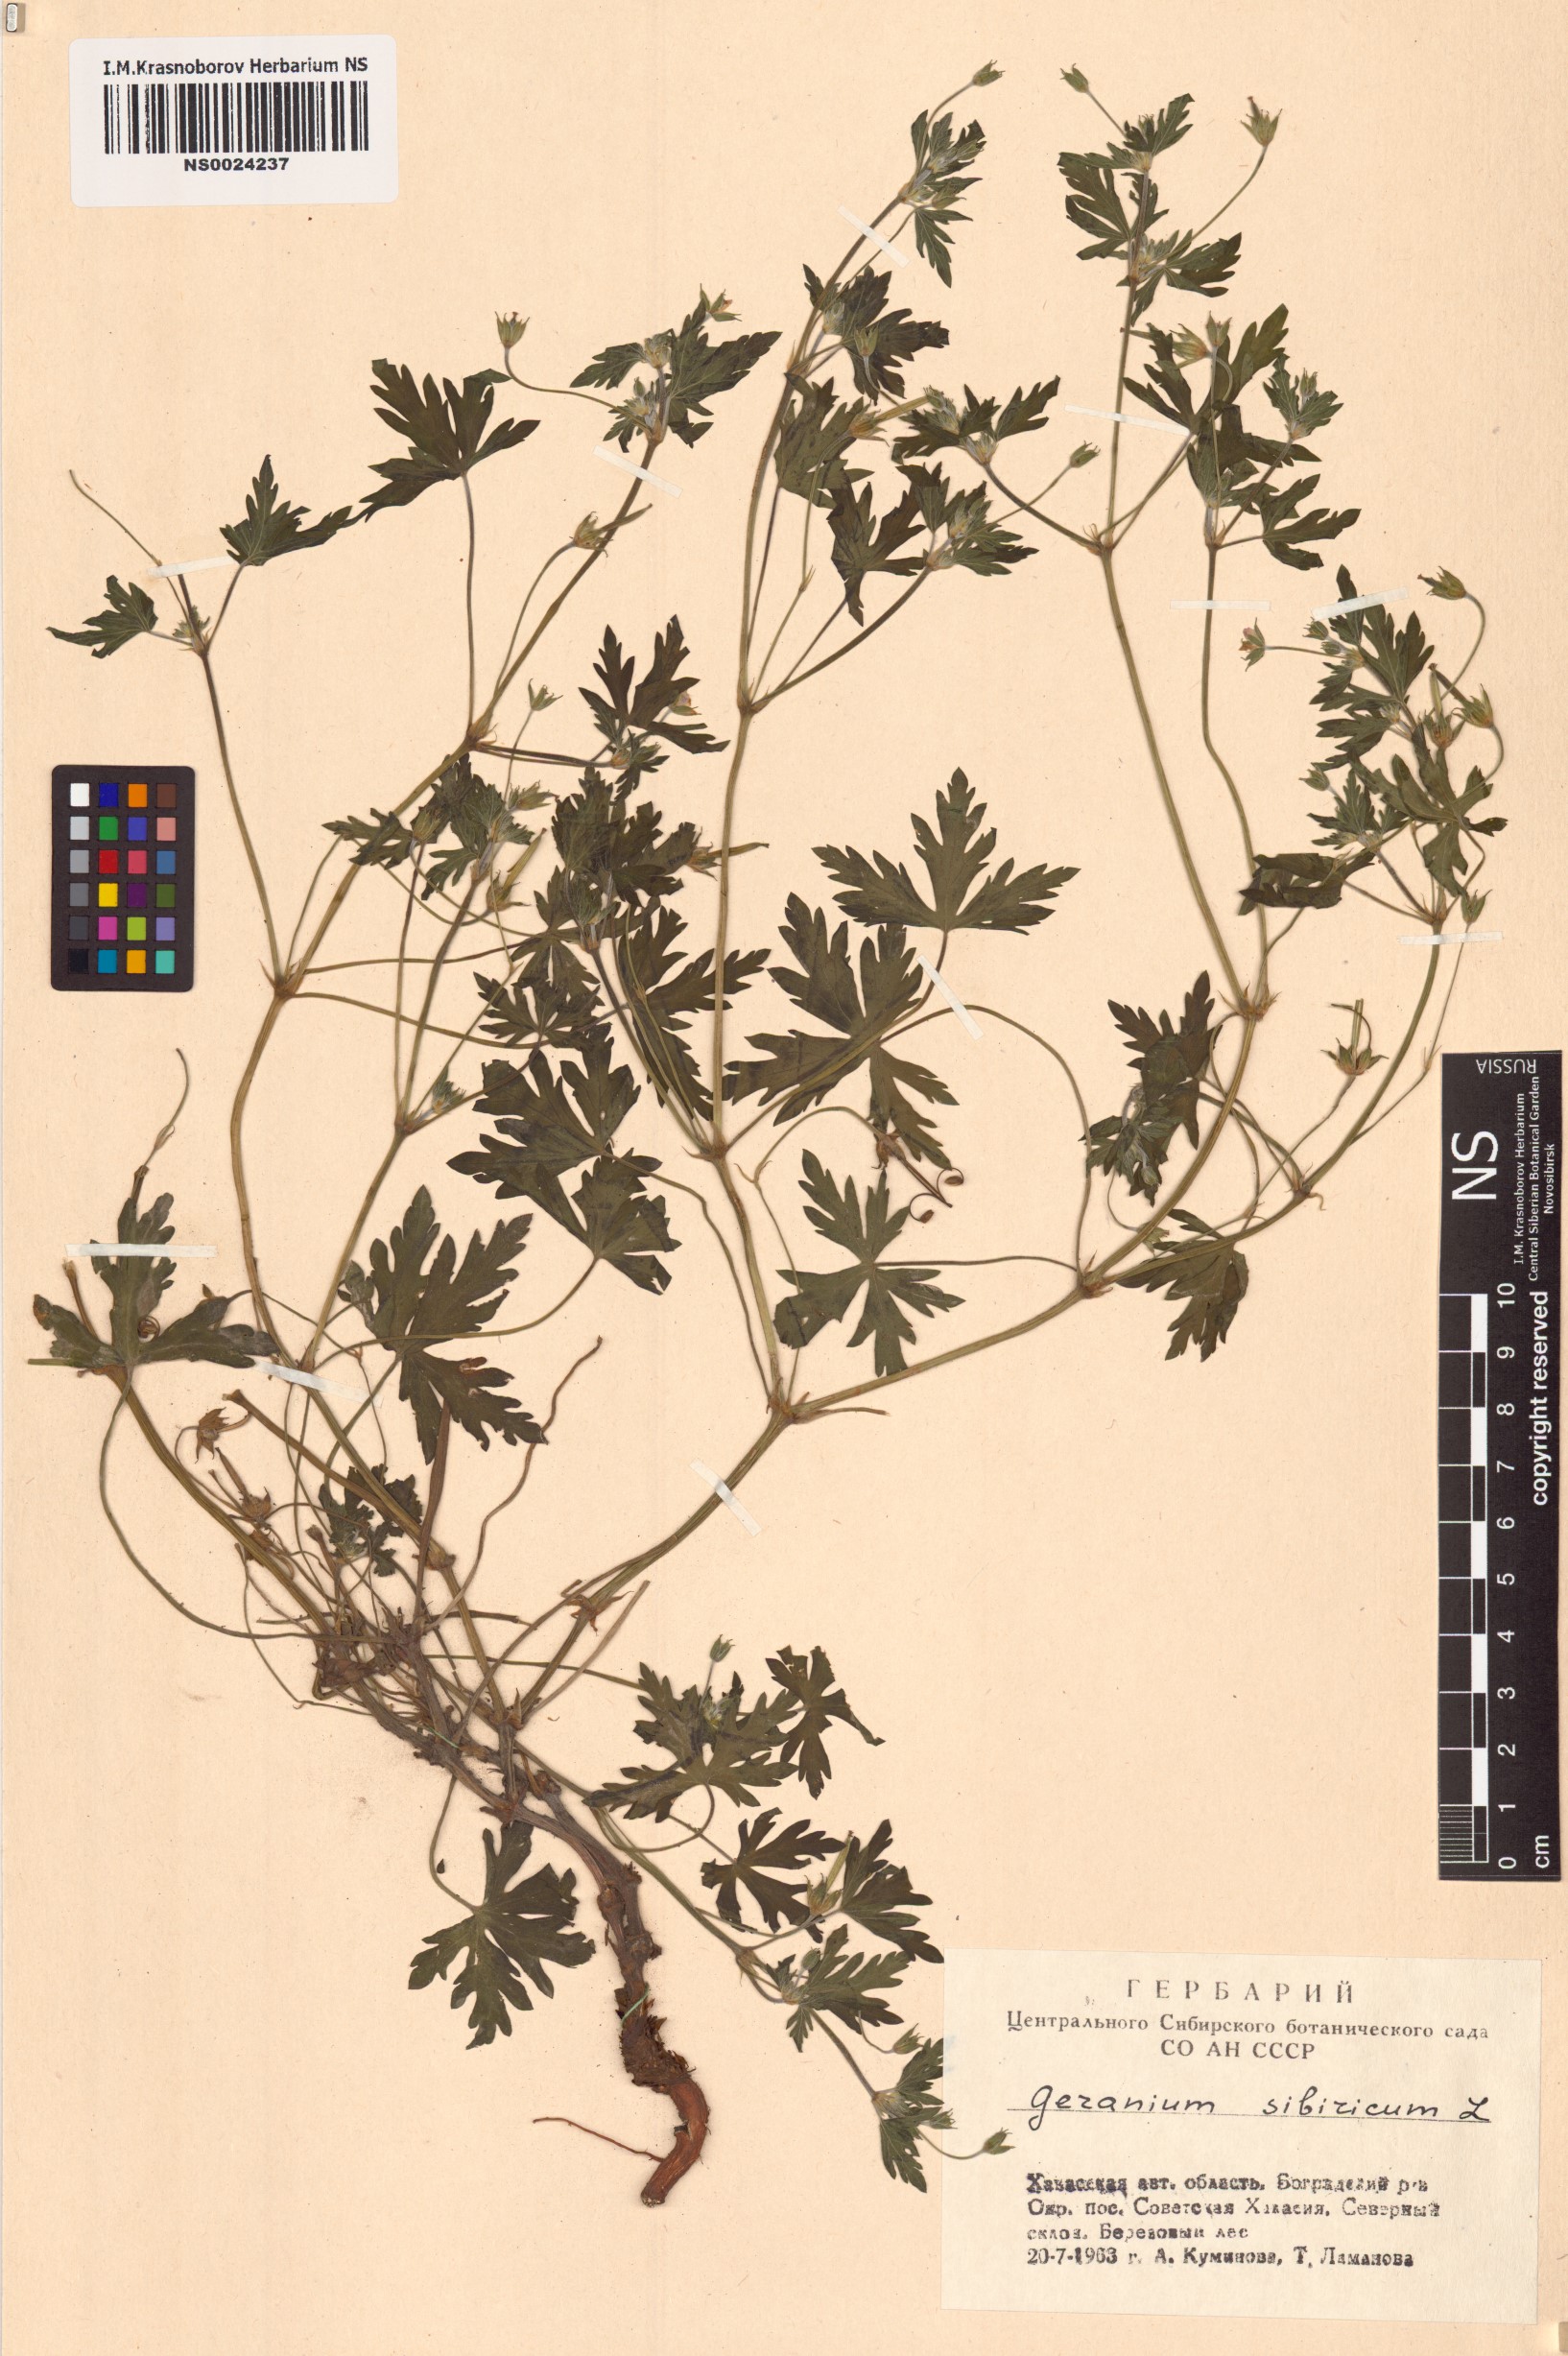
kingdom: Plantae
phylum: Tracheophyta
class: Magnoliopsida
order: Geraniales
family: Geraniaceae
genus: Geranium
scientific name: Geranium sibiricum
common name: Siberian crane's-bill
